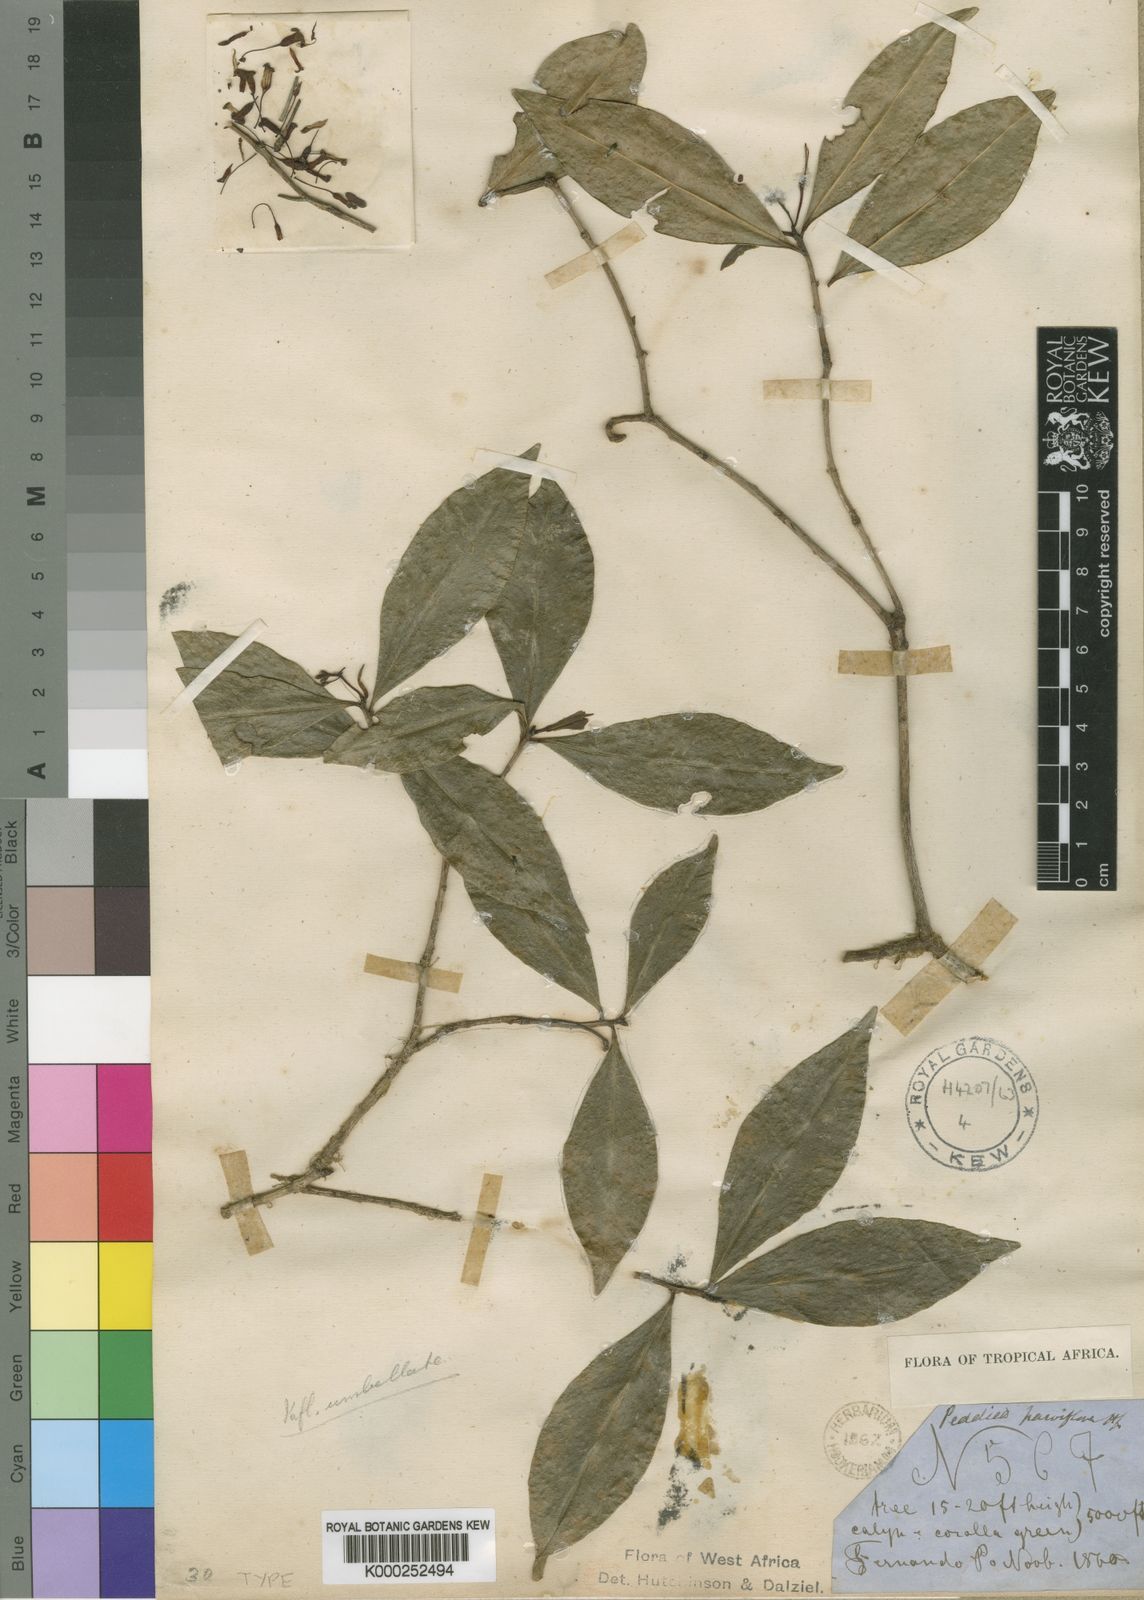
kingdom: Plantae
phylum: Tracheophyta
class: Magnoliopsida
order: Malvales
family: Thymelaeaceae
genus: Peddiea
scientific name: Peddiea africana
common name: Poison olive
